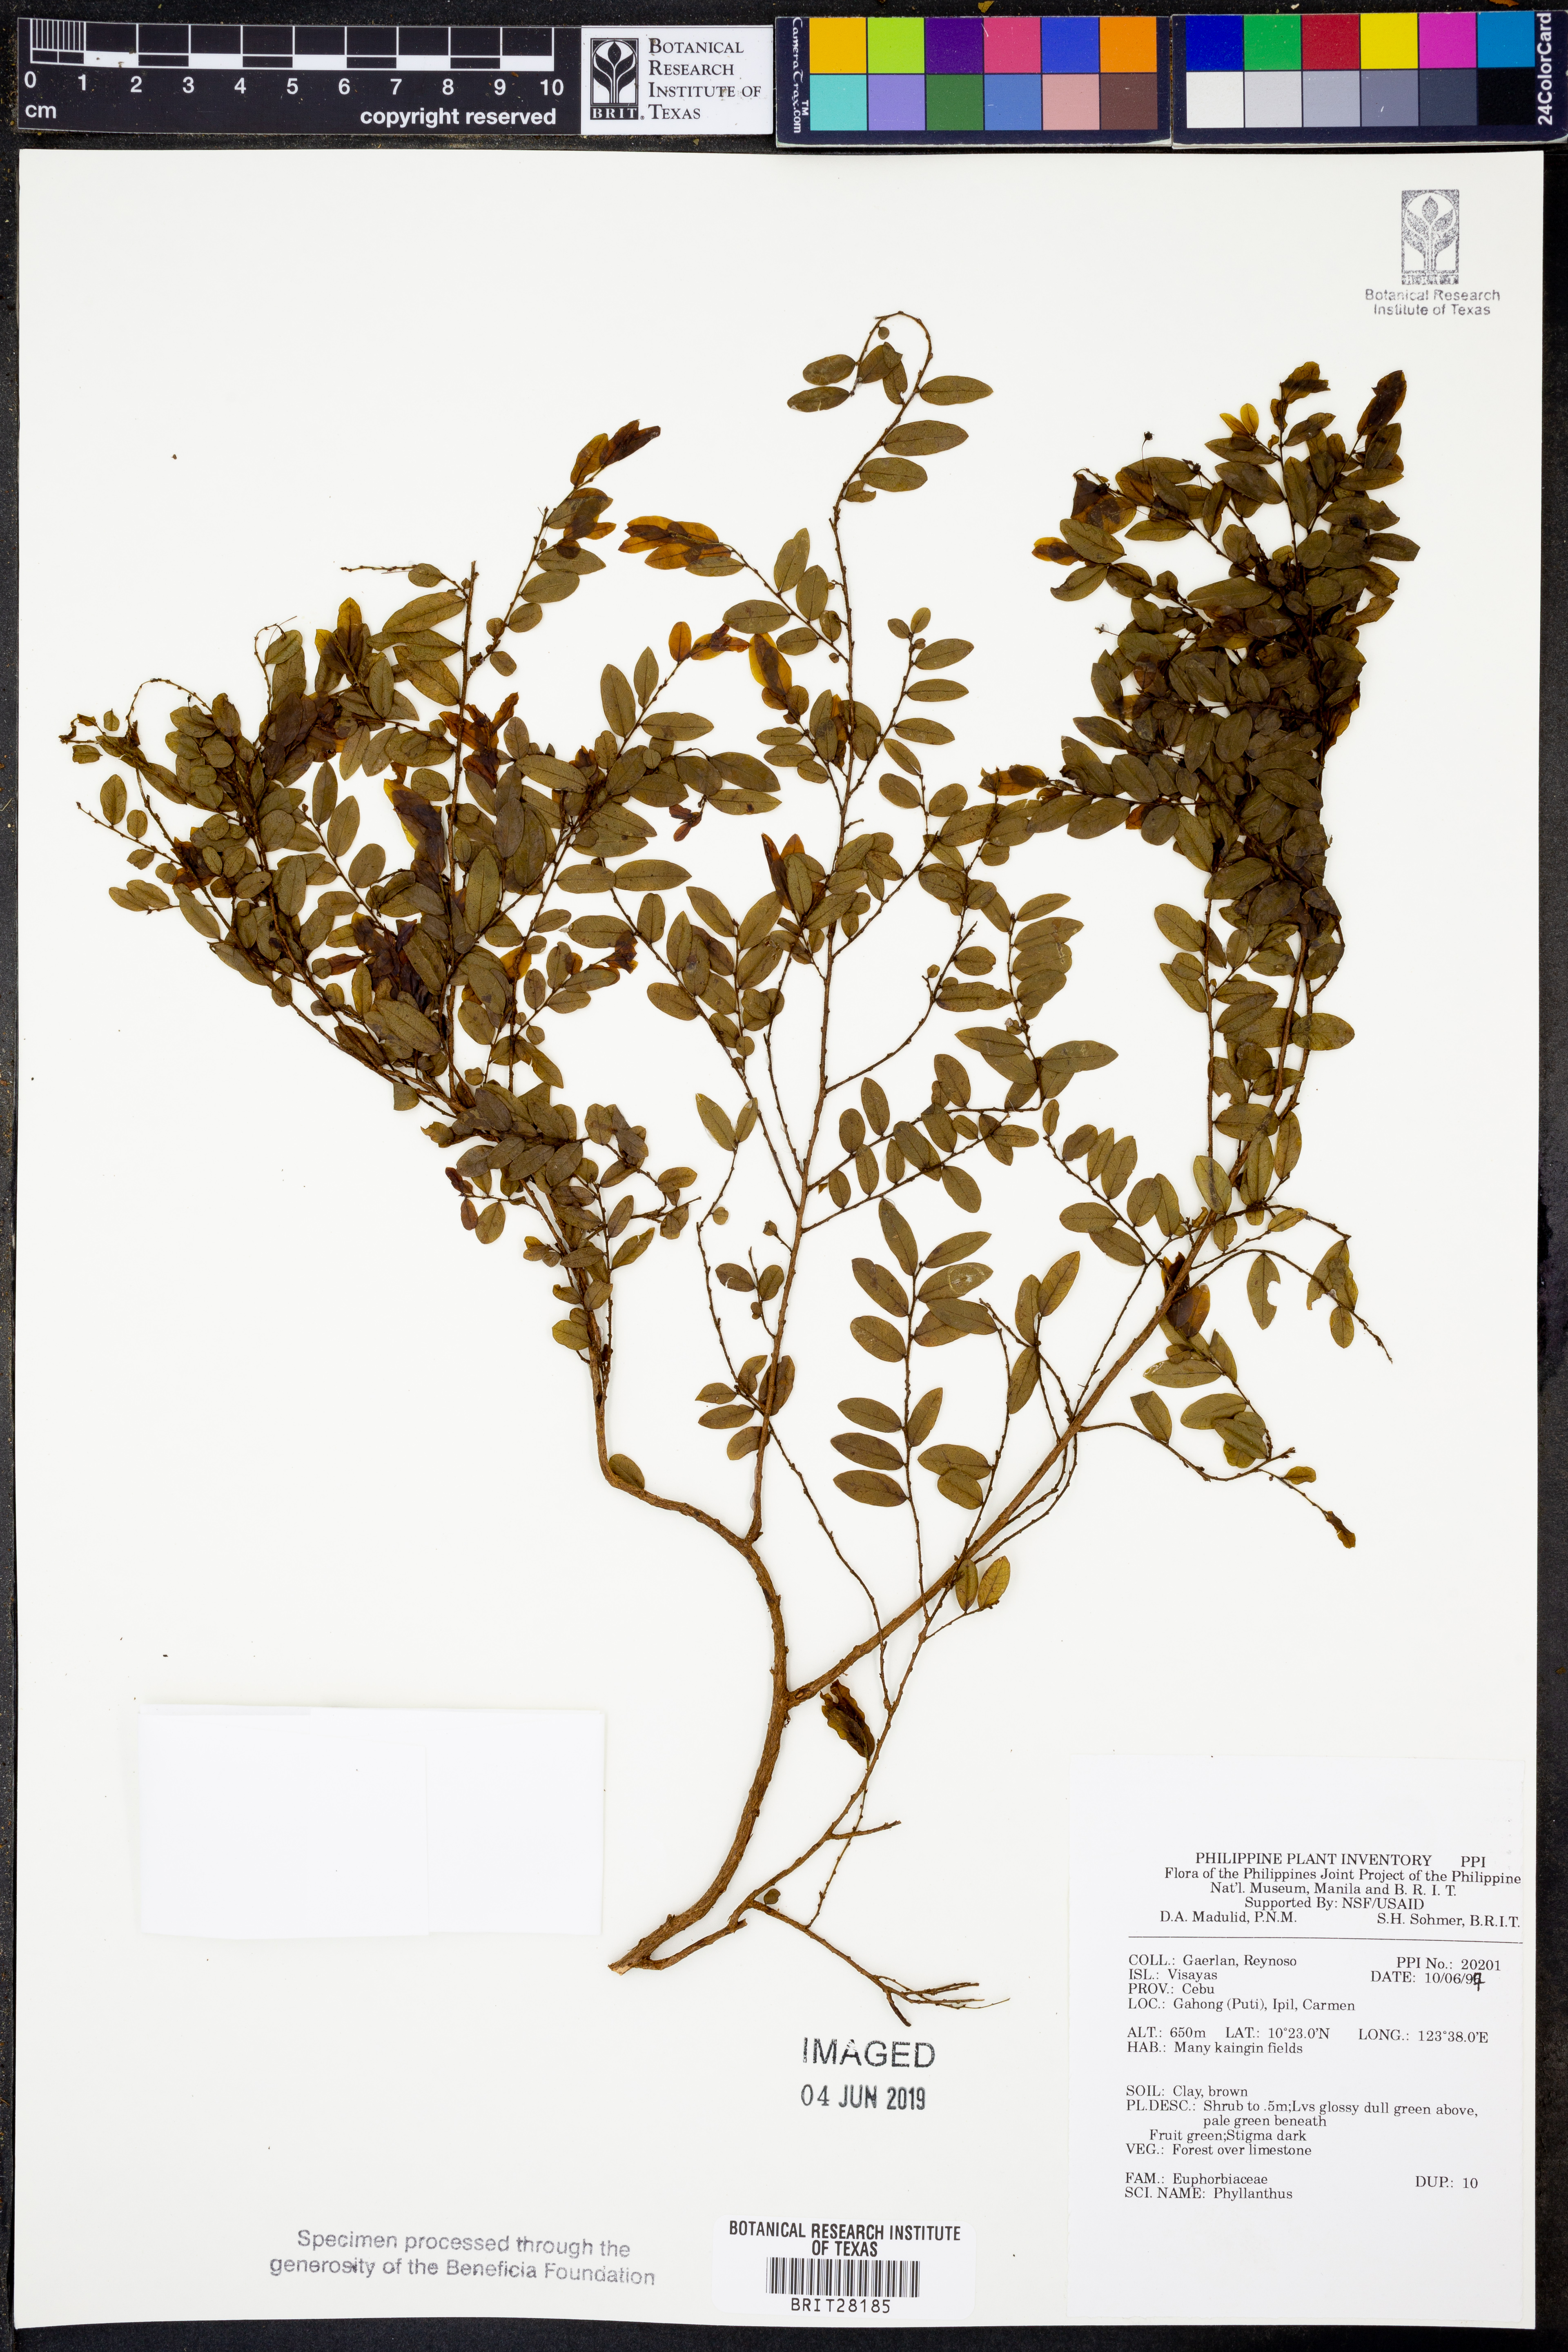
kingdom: Plantae
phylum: Tracheophyta
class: Magnoliopsida
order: Malpighiales
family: Phyllanthaceae
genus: Phyllanthus
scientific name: Phyllanthus
